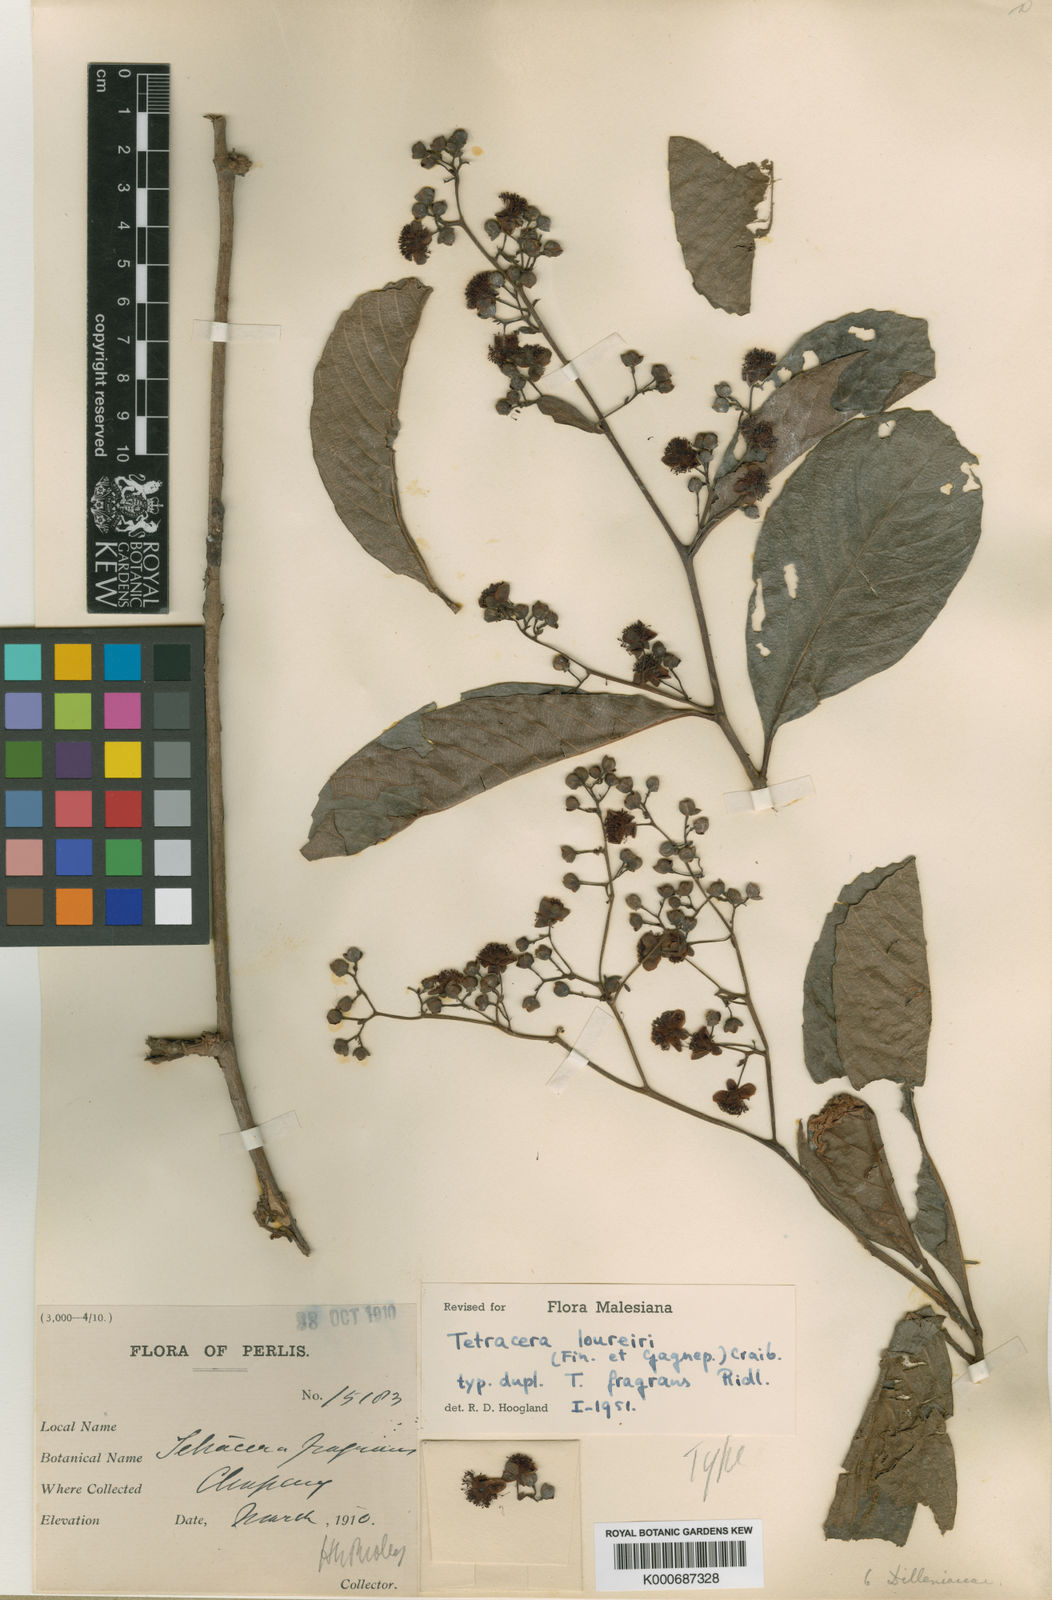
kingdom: Plantae
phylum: Tracheophyta
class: Magnoliopsida
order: Dilleniales
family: Dilleniaceae
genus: Tetracera
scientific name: Tetracera
